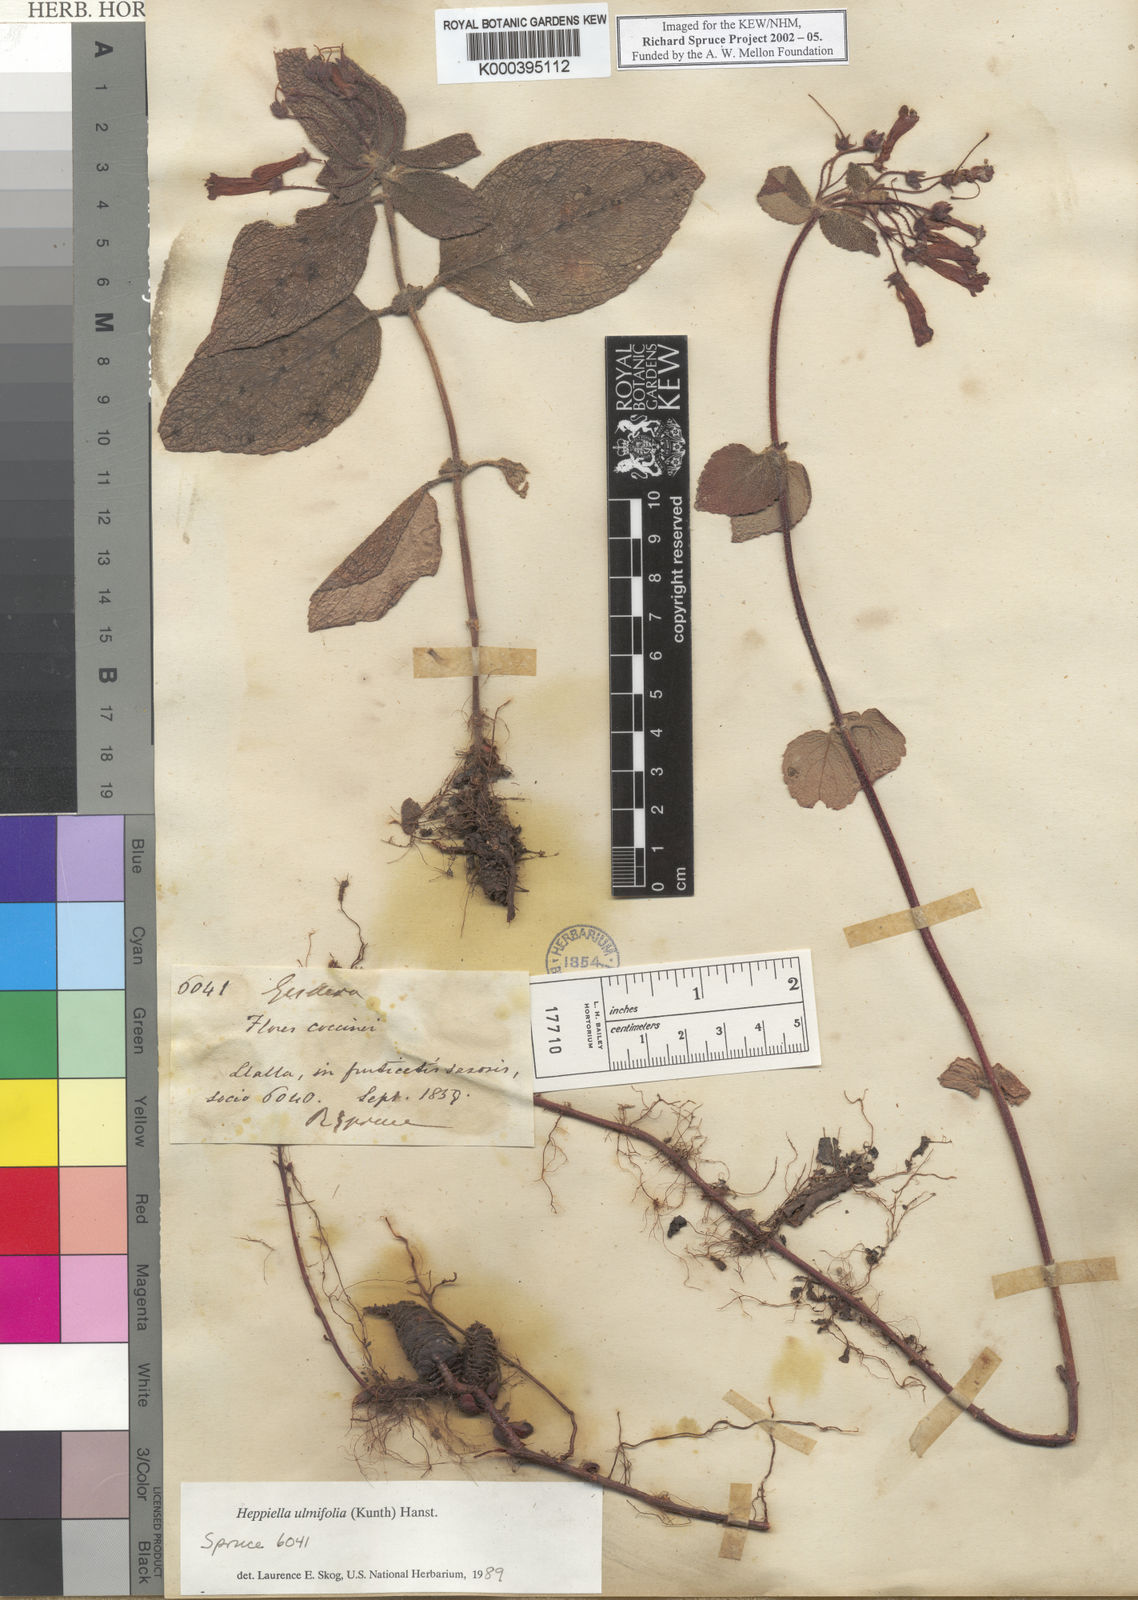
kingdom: Plantae
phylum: Tracheophyta
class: Magnoliopsida
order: Lamiales
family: Gesneriaceae
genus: Heppiella
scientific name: Heppiella ulmifolia
